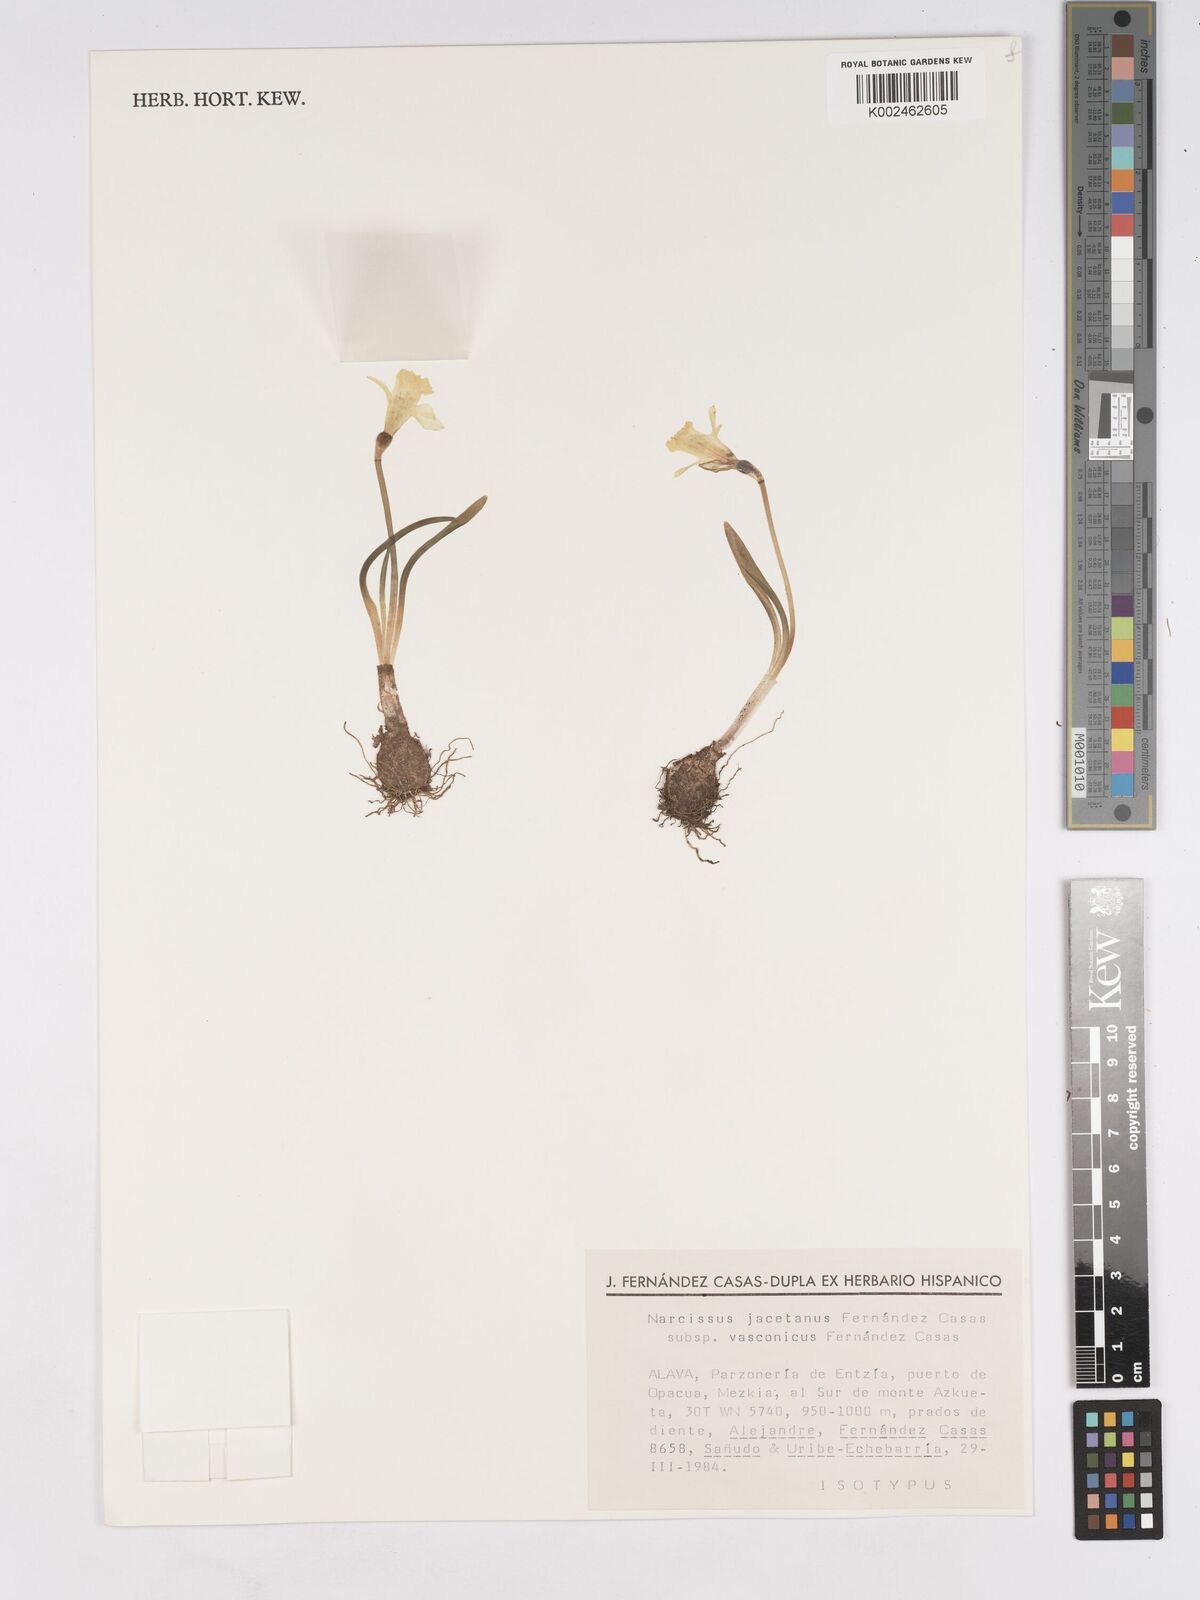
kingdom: Plantae
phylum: Tracheophyta
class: Liliopsida
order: Asparagales
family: Amaryllidaceae
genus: Narcissus
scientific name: Narcissus minor
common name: Lesser daffodil
